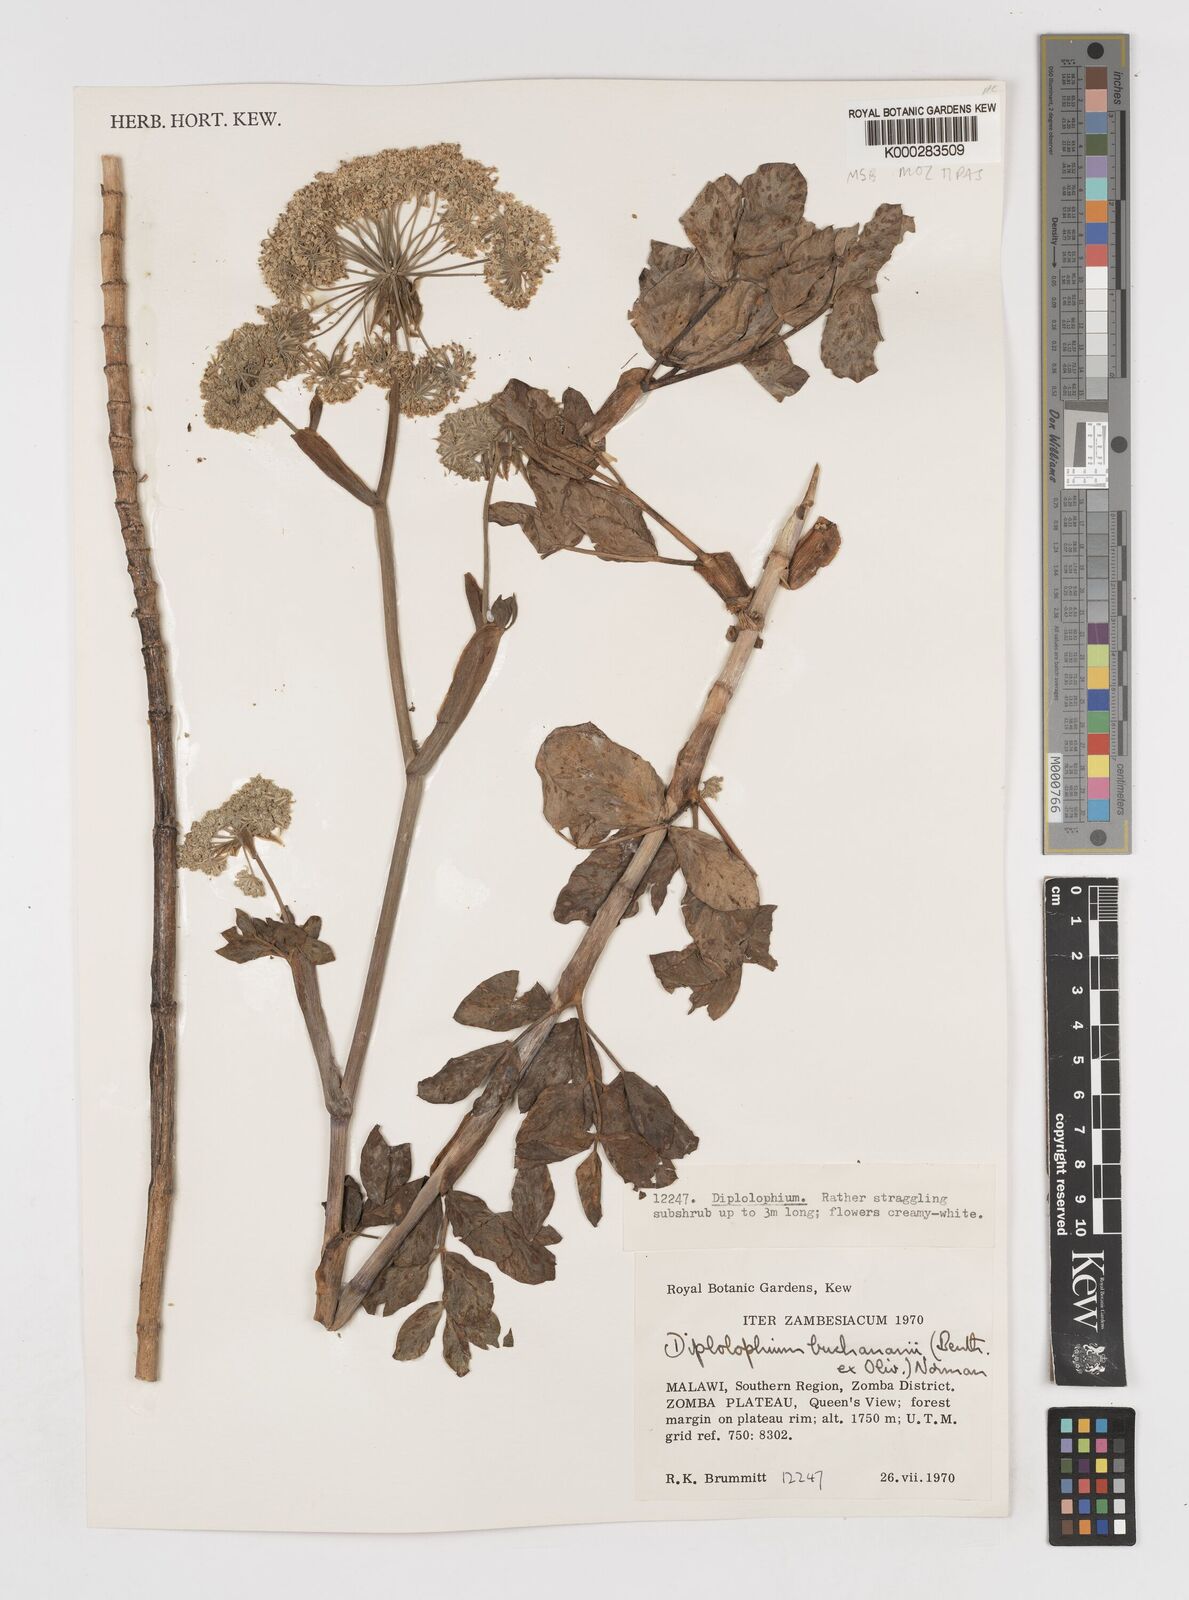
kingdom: Plantae
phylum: Tracheophyta
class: Magnoliopsida
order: Apiales
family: Apiaceae
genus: Diplolophium
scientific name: Diplolophium buchananii
